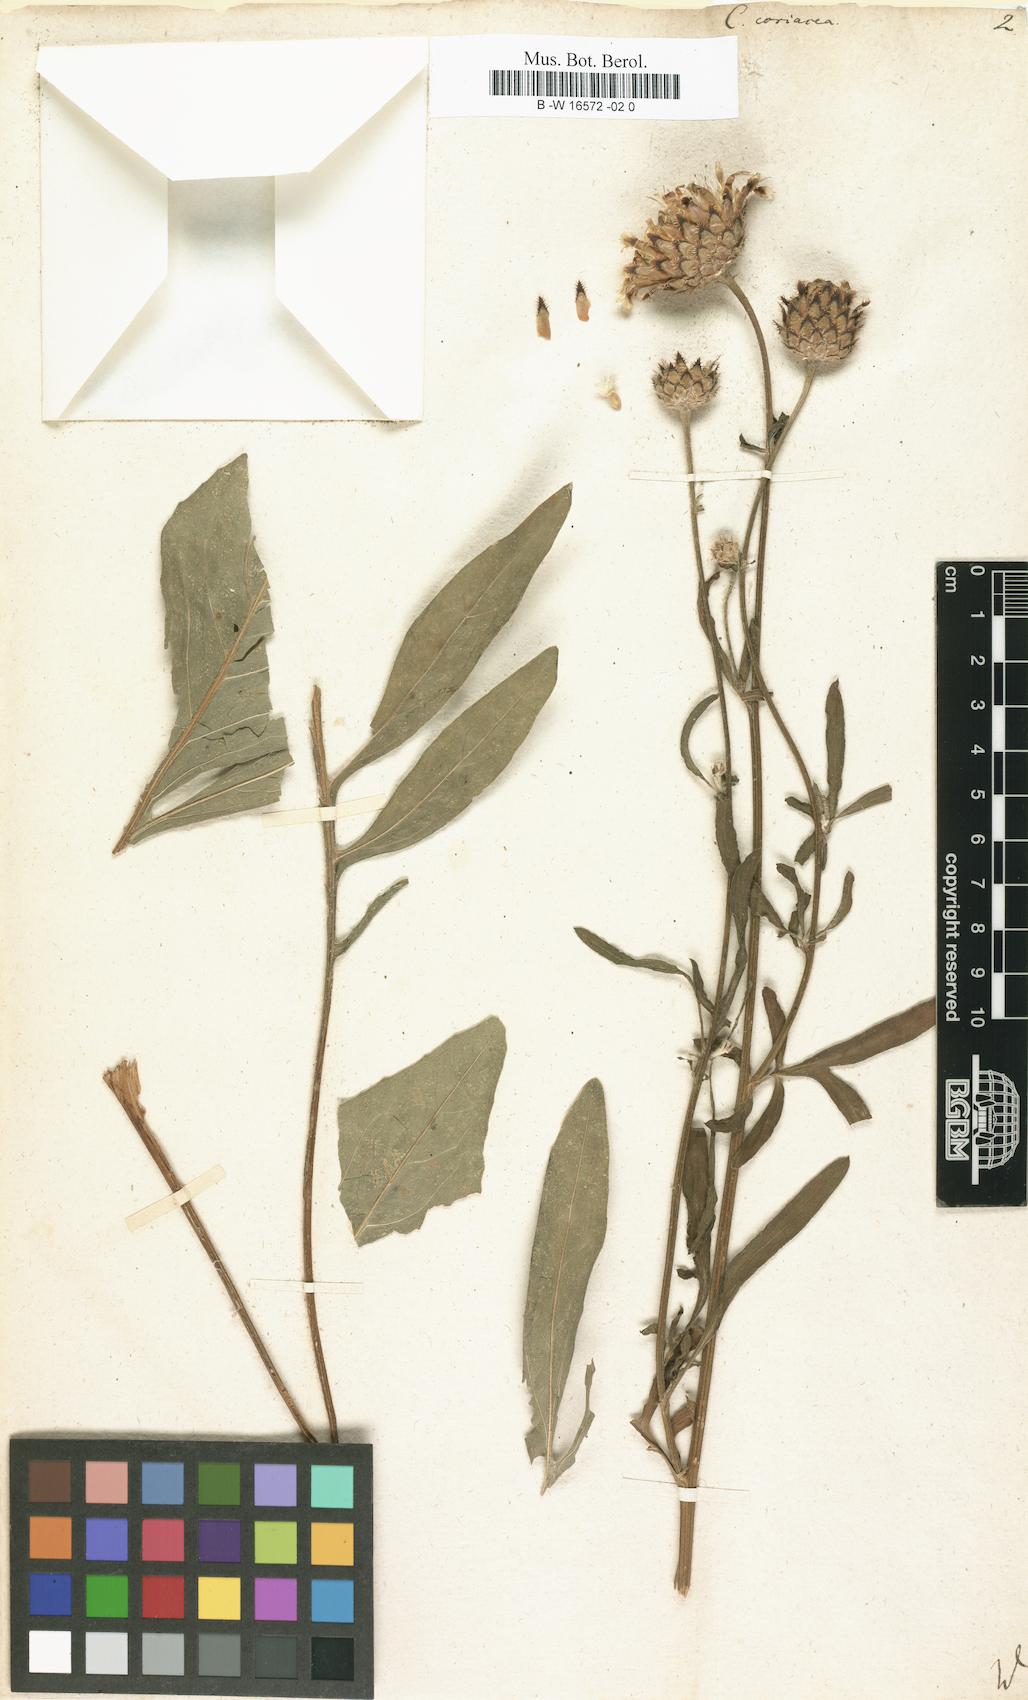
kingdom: Plantae
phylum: Tracheophyta
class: Magnoliopsida
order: Asterales
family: Asteraceae
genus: Centaurea
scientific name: Centaurea scabiosa
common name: Greater knapweed
